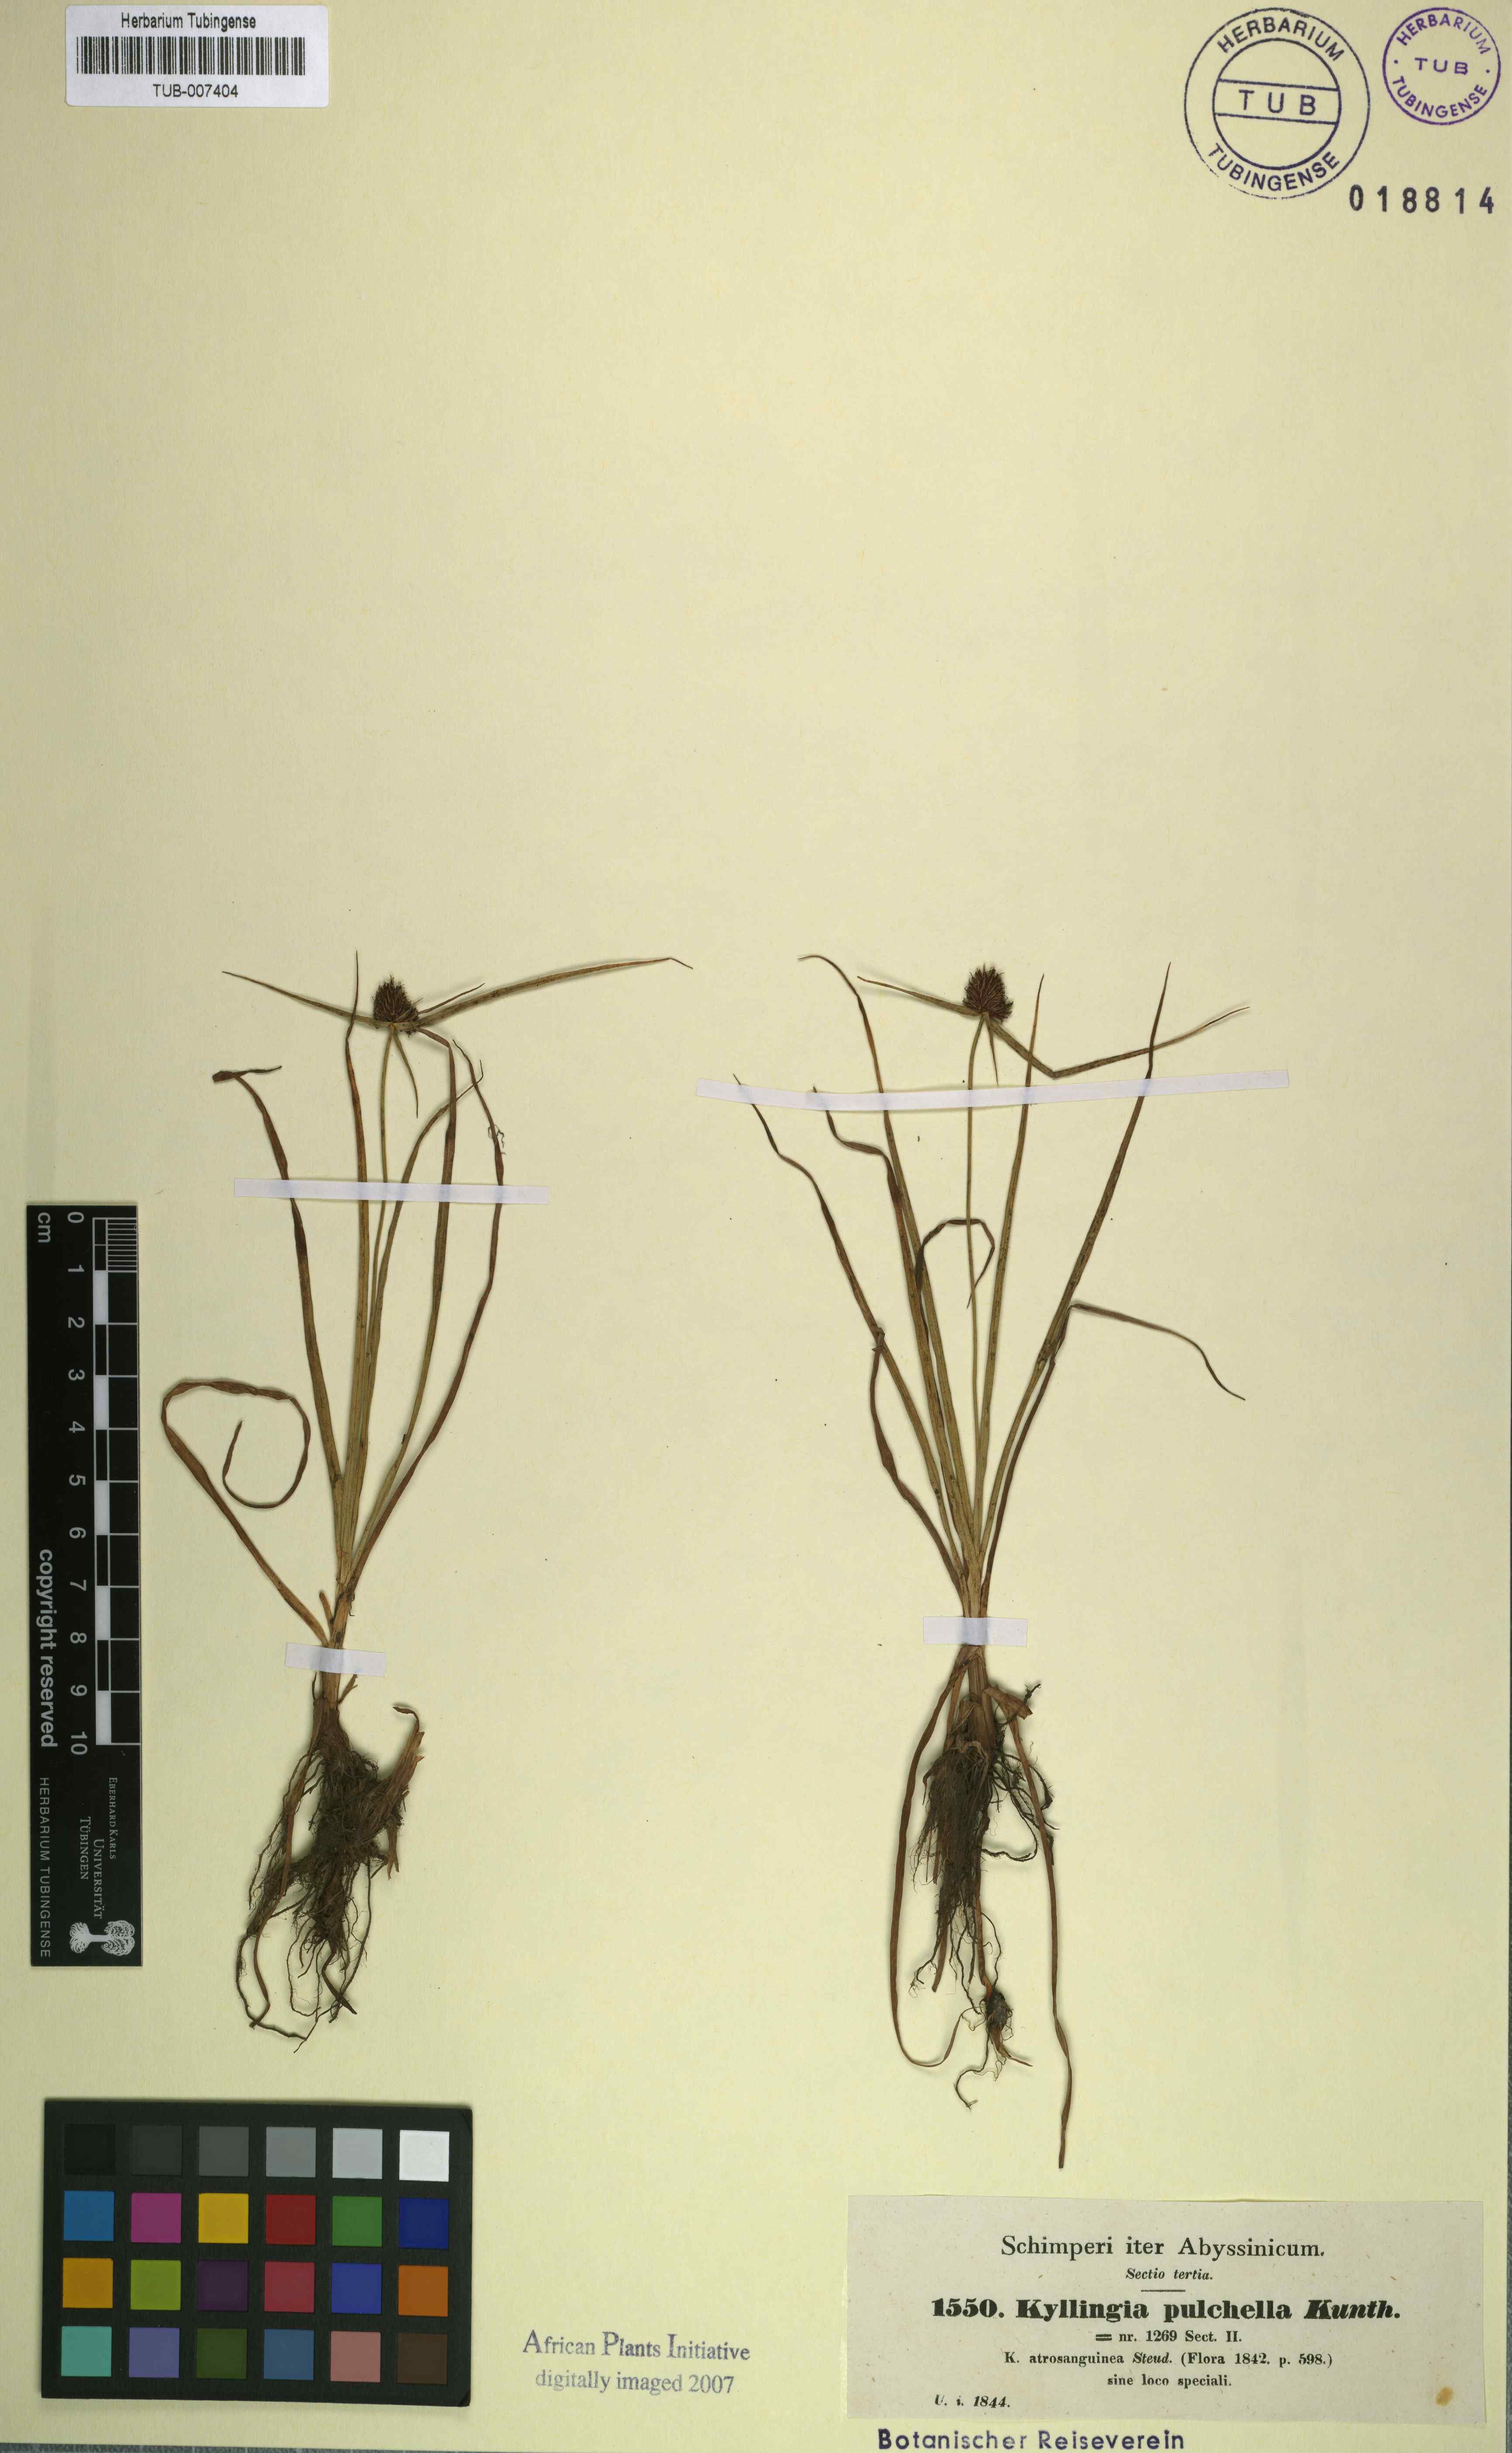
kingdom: Plantae
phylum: Tracheophyta
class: Liliopsida
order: Poales
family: Cyperaceae
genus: Cyperus
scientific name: Cyperus bracheilema
